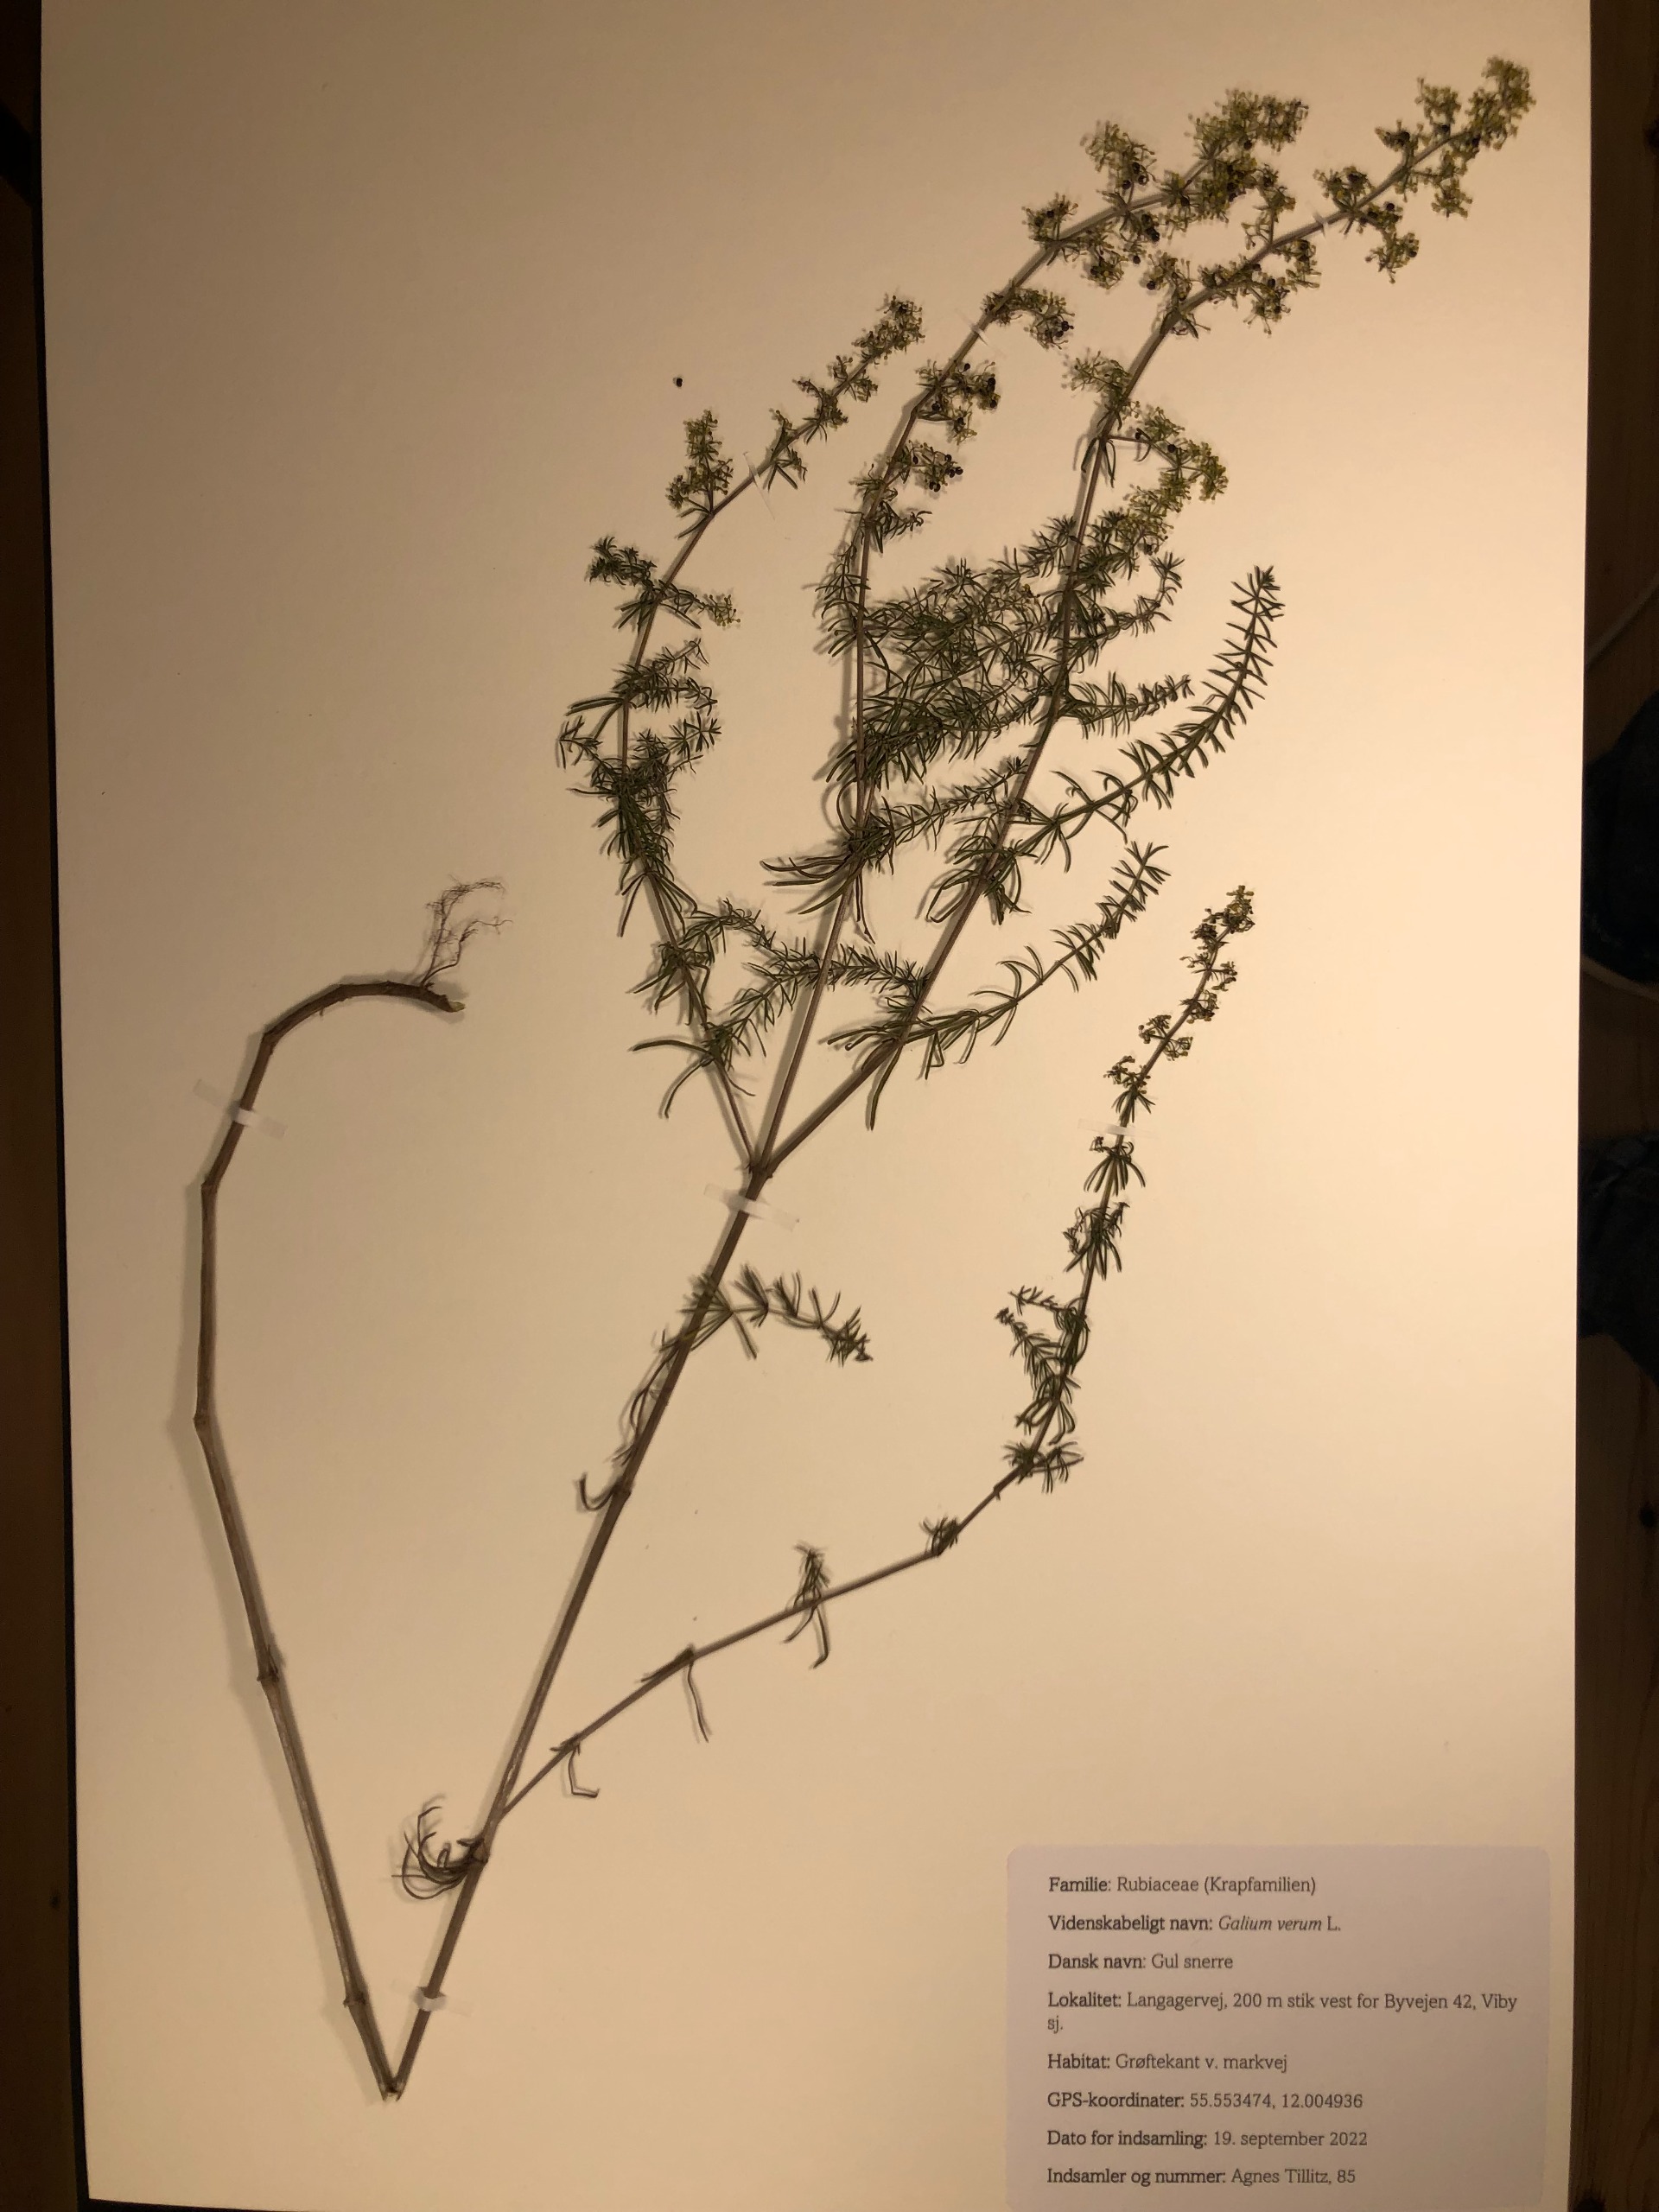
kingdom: Plantae
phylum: Tracheophyta
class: Magnoliopsida
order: Gentianales
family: Rubiaceae
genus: Galium
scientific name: Galium verum
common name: Gul snerre
